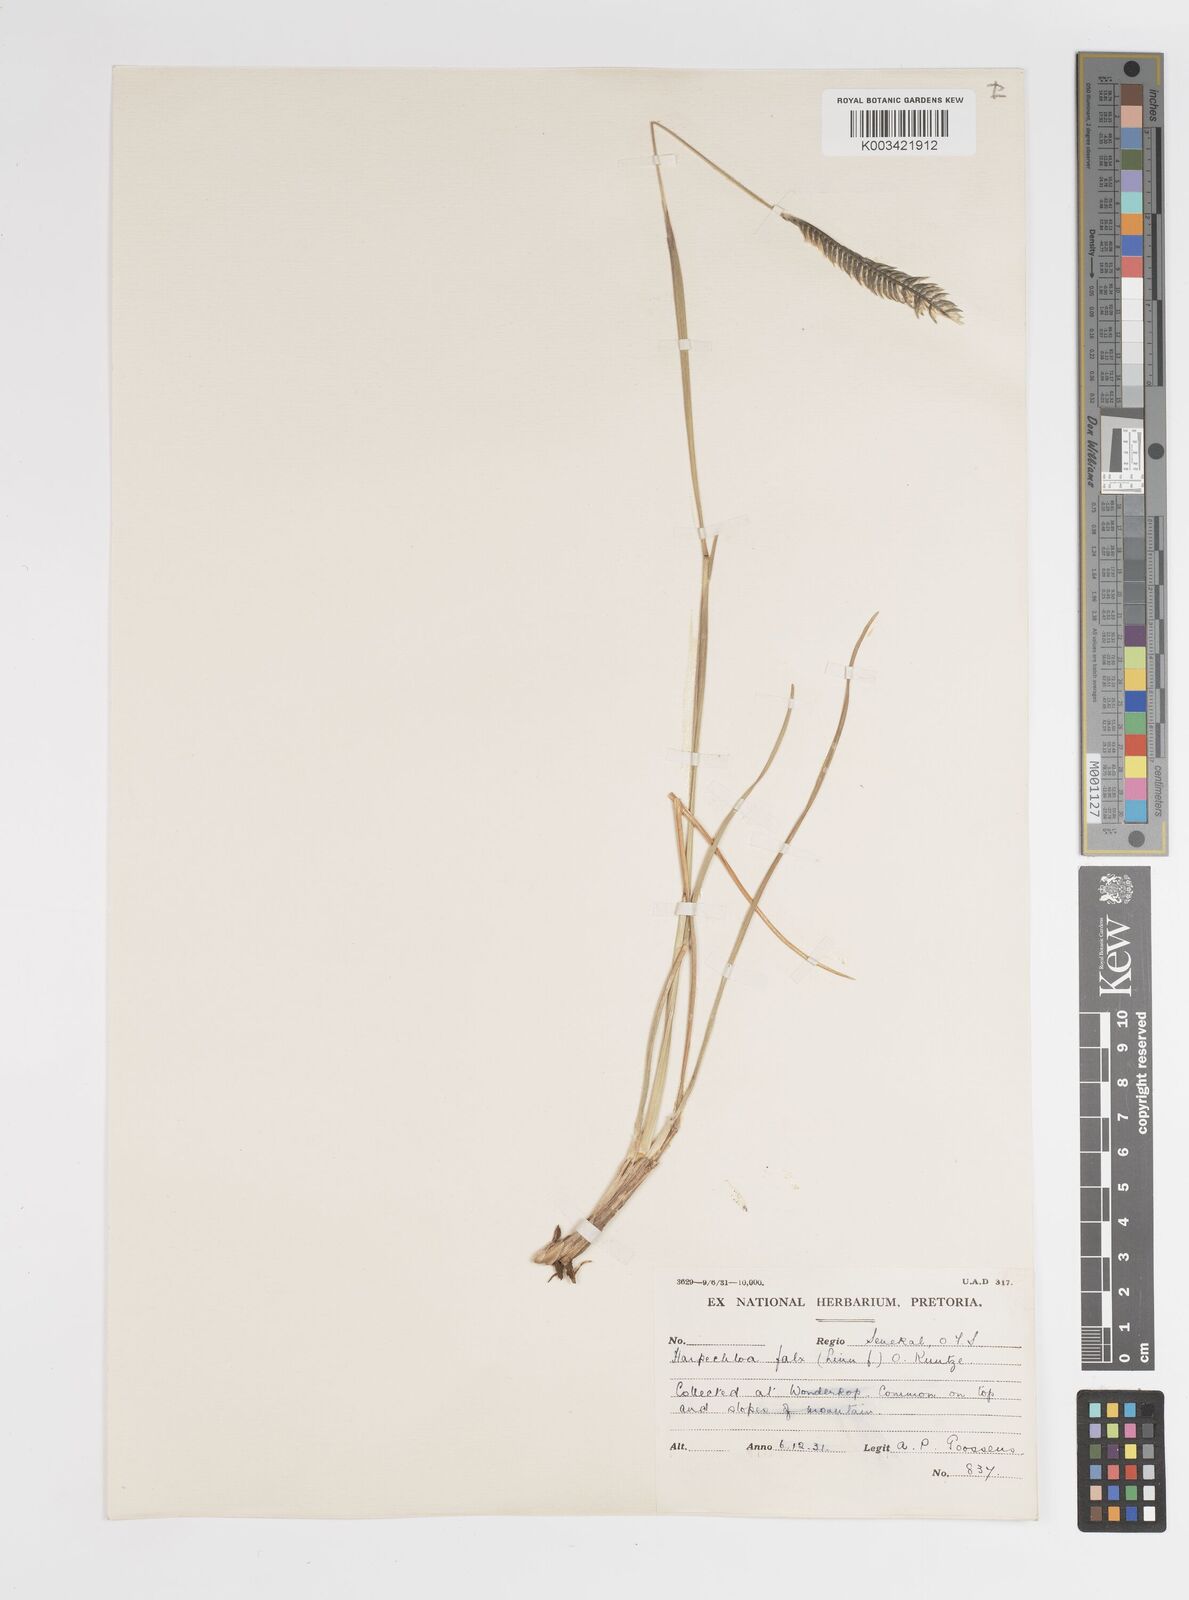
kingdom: Plantae
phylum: Tracheophyta
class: Liliopsida
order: Poales
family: Poaceae
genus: Harpochloa
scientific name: Harpochloa falx
